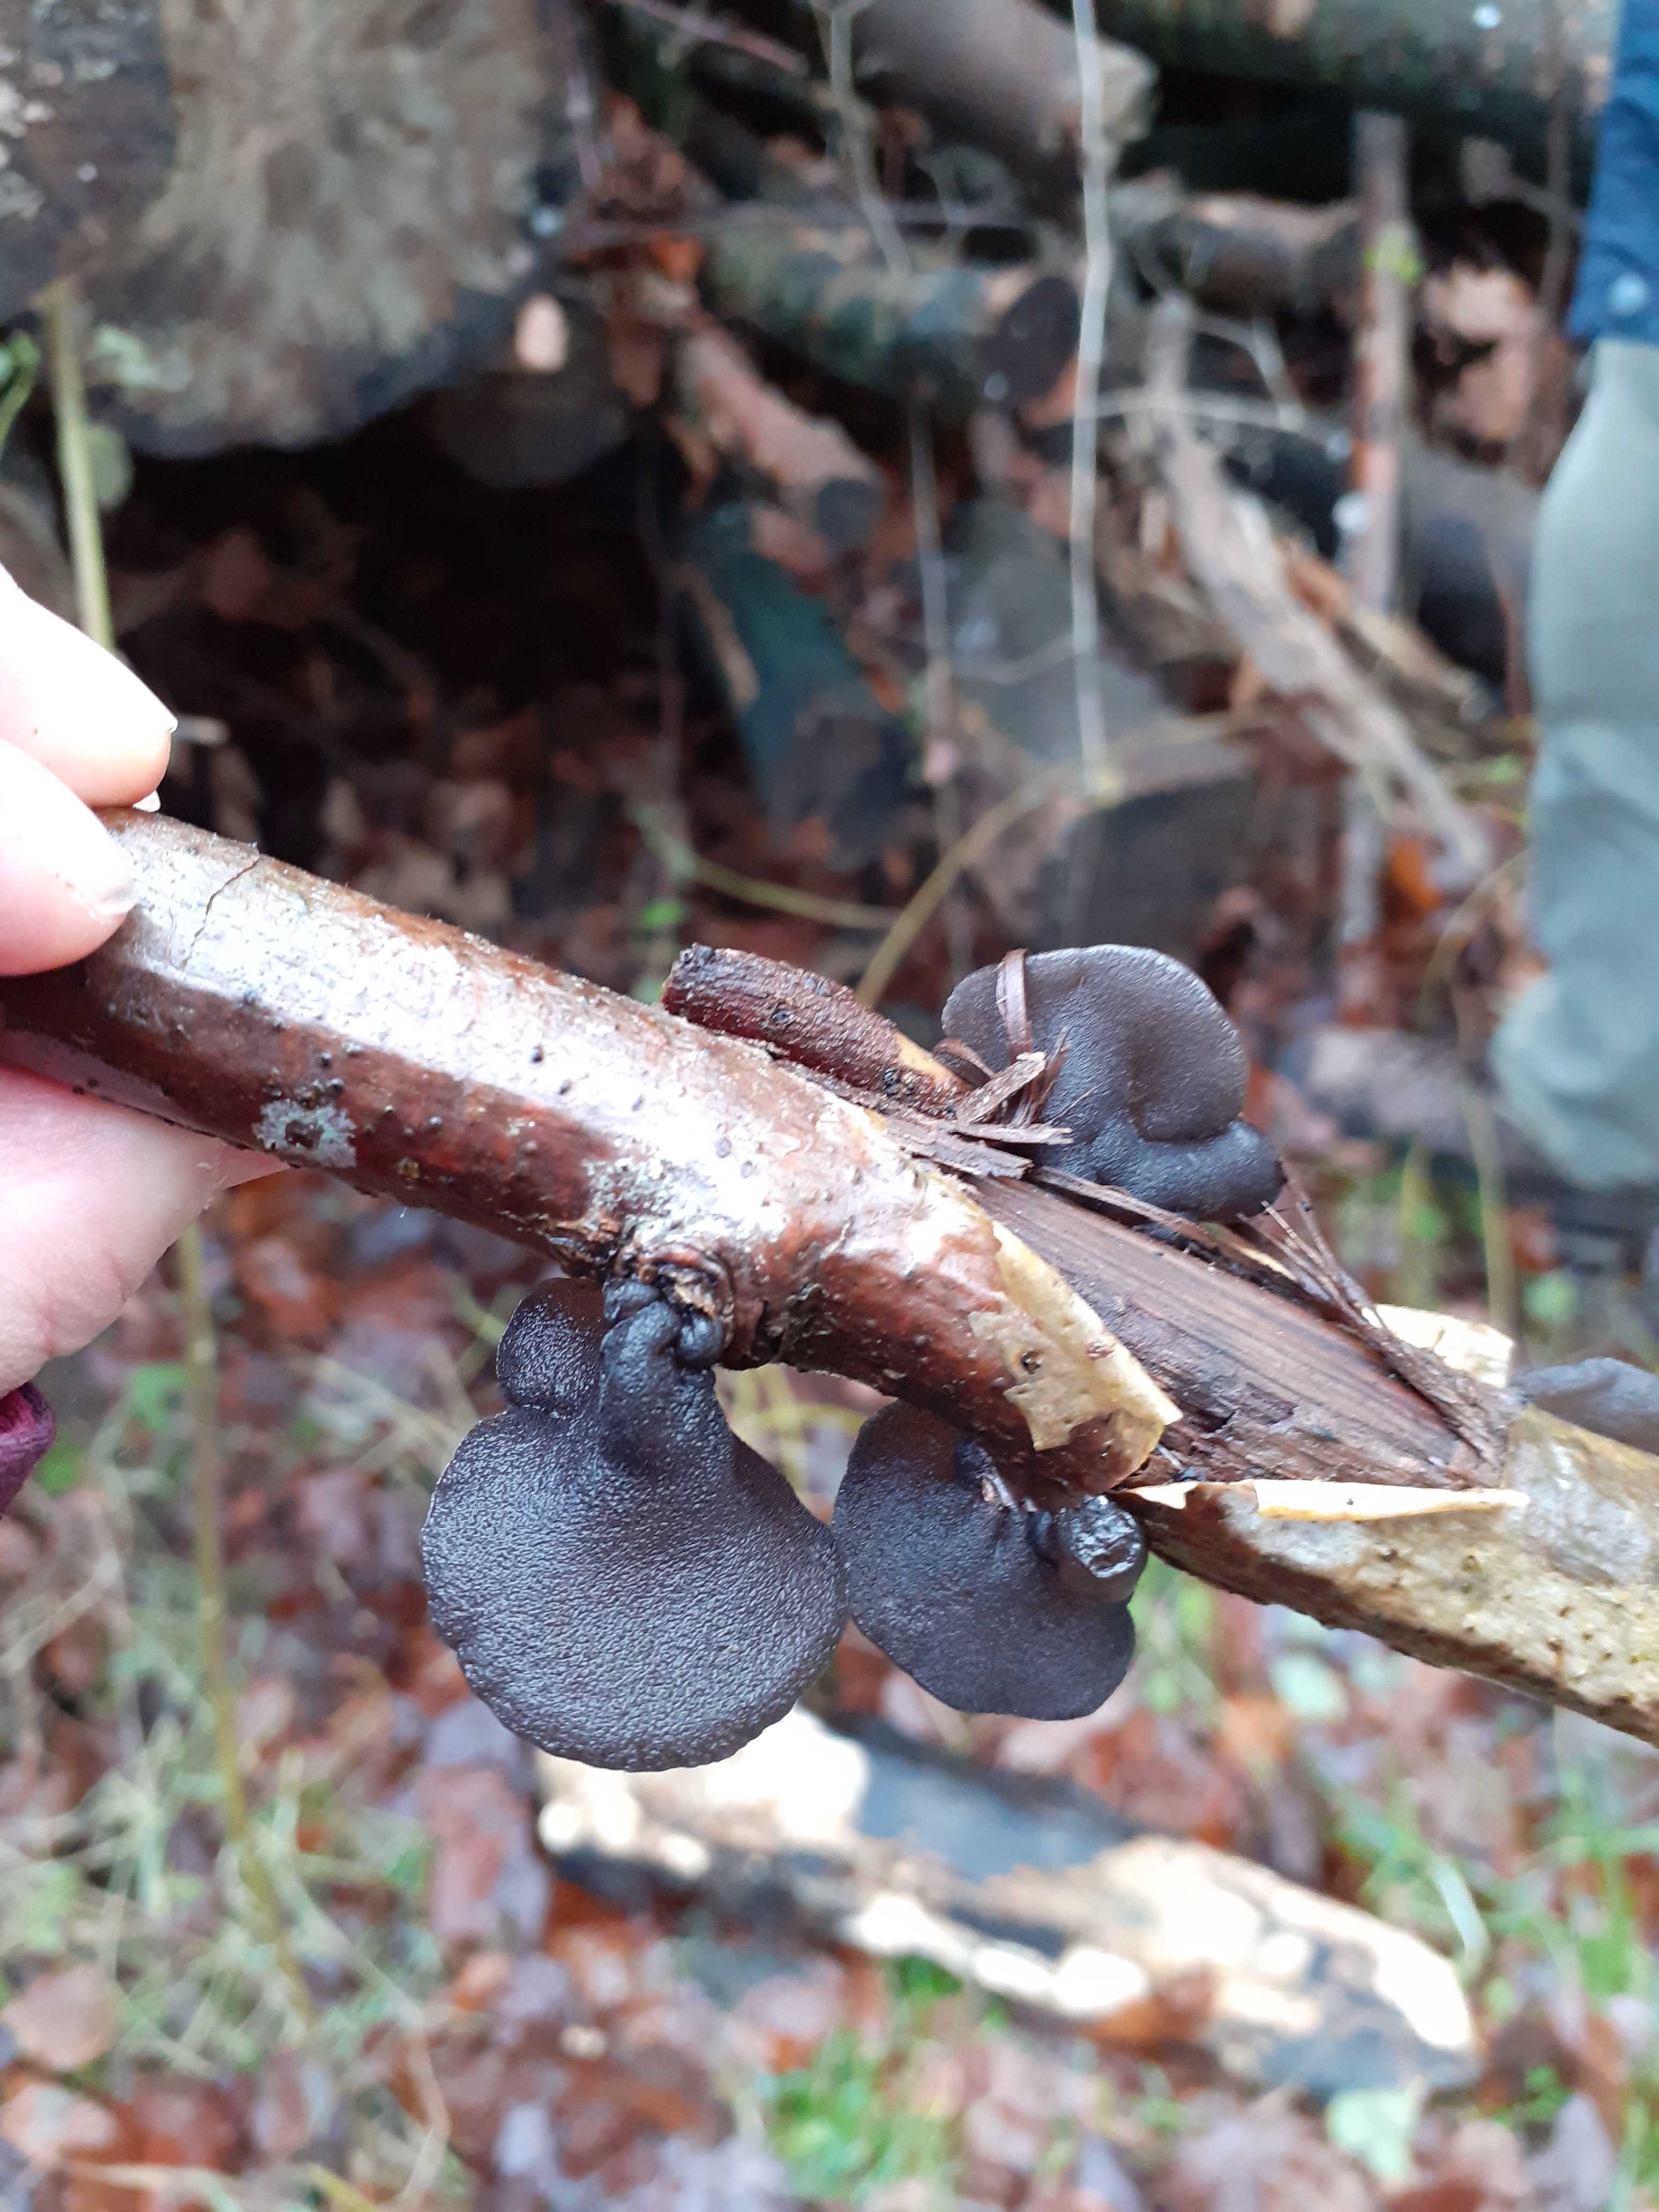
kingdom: Fungi
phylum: Basidiomycota
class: Agaricomycetes
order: Auriculariales
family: Auriculariaceae
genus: Exidia
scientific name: Exidia glandulosa
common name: ege-bævretop
